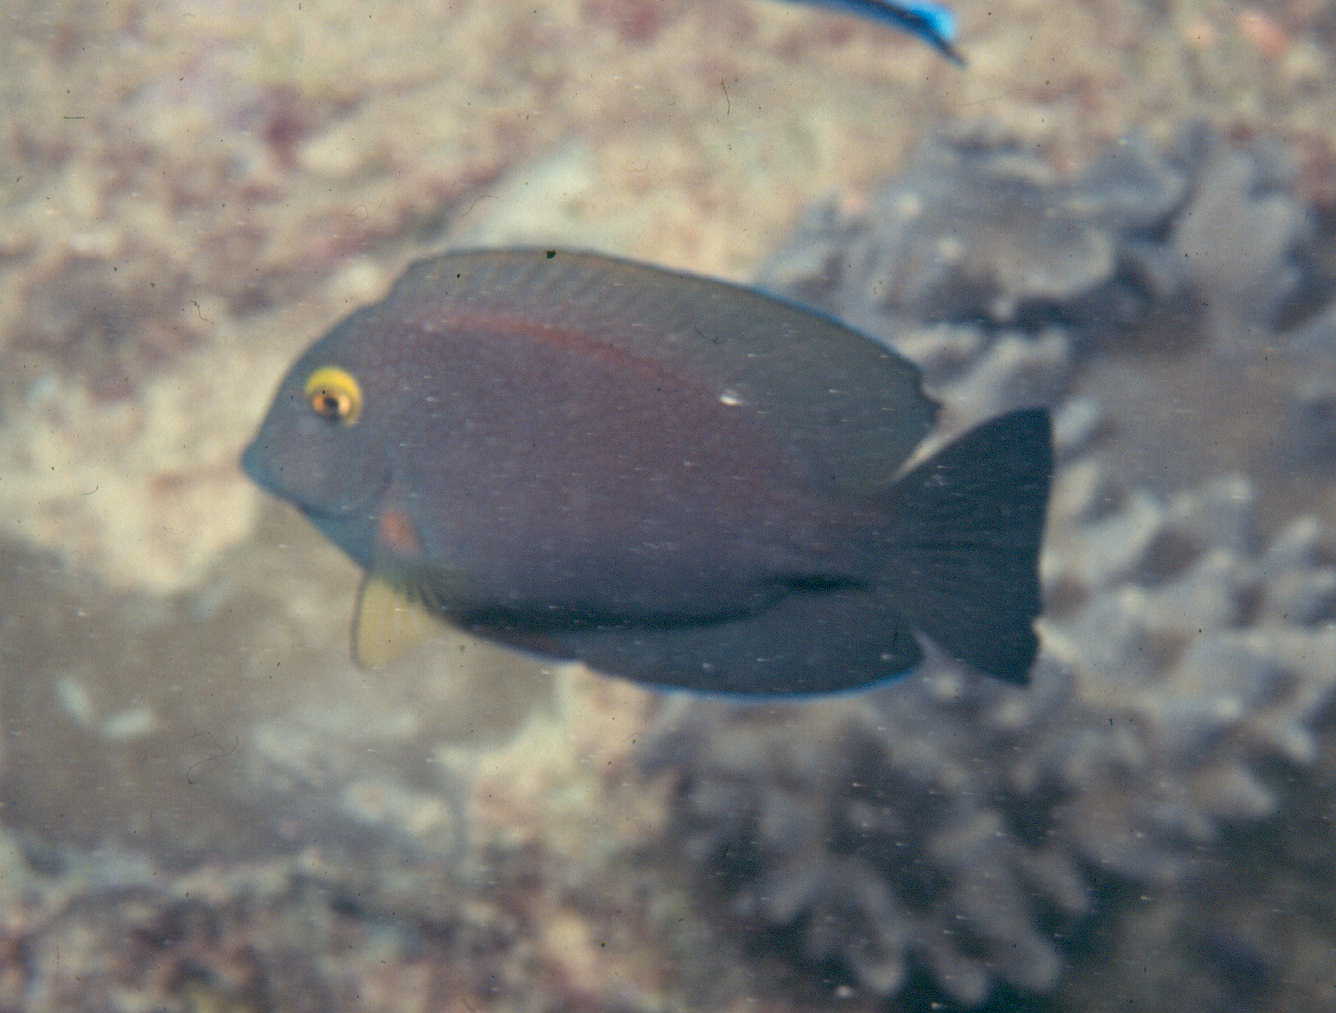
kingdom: Animalia
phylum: Chordata
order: Perciformes
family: Acanthuridae
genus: Ctenochaetus
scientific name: Ctenochaetus strigosus
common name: Bristletoothed surgeonfish
